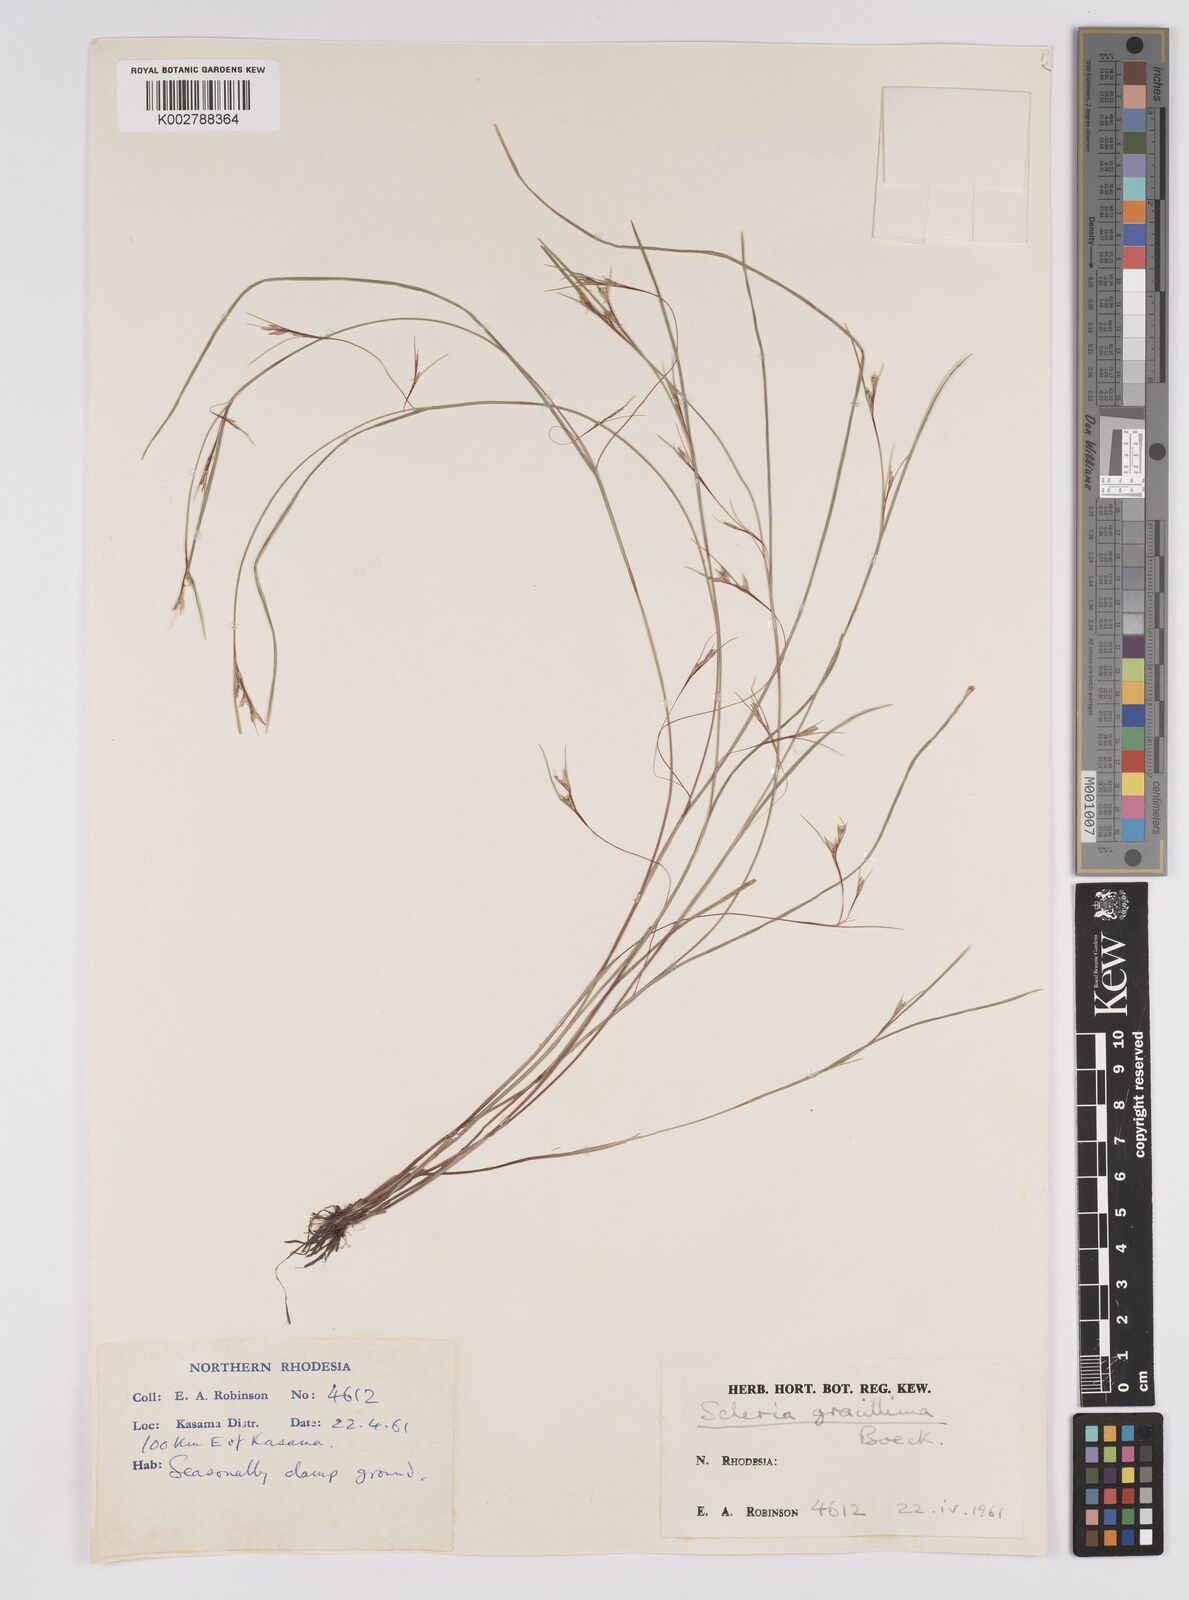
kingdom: Plantae
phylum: Tracheophyta
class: Liliopsida
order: Poales
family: Cyperaceae
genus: Scleria
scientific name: Scleria gracillima
